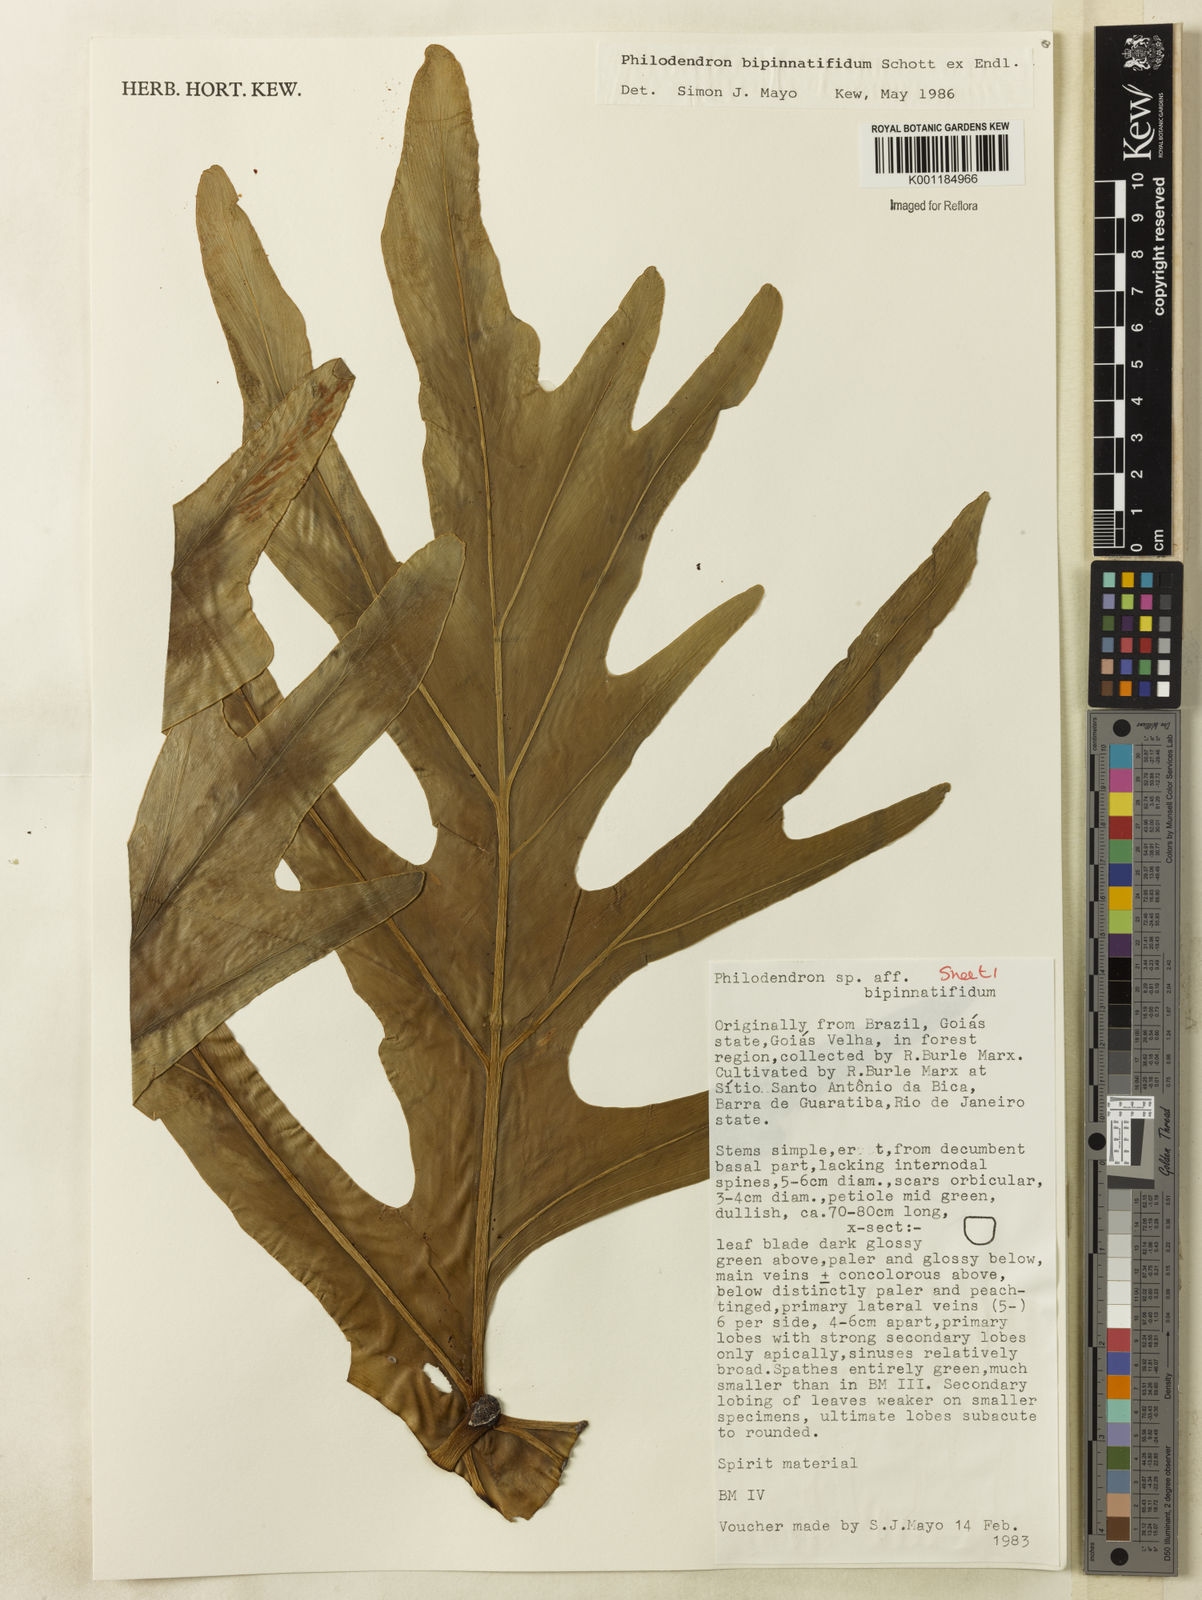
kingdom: Plantae
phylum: Tracheophyta
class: Liliopsida
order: Alismatales
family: Araceae
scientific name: Araceae
